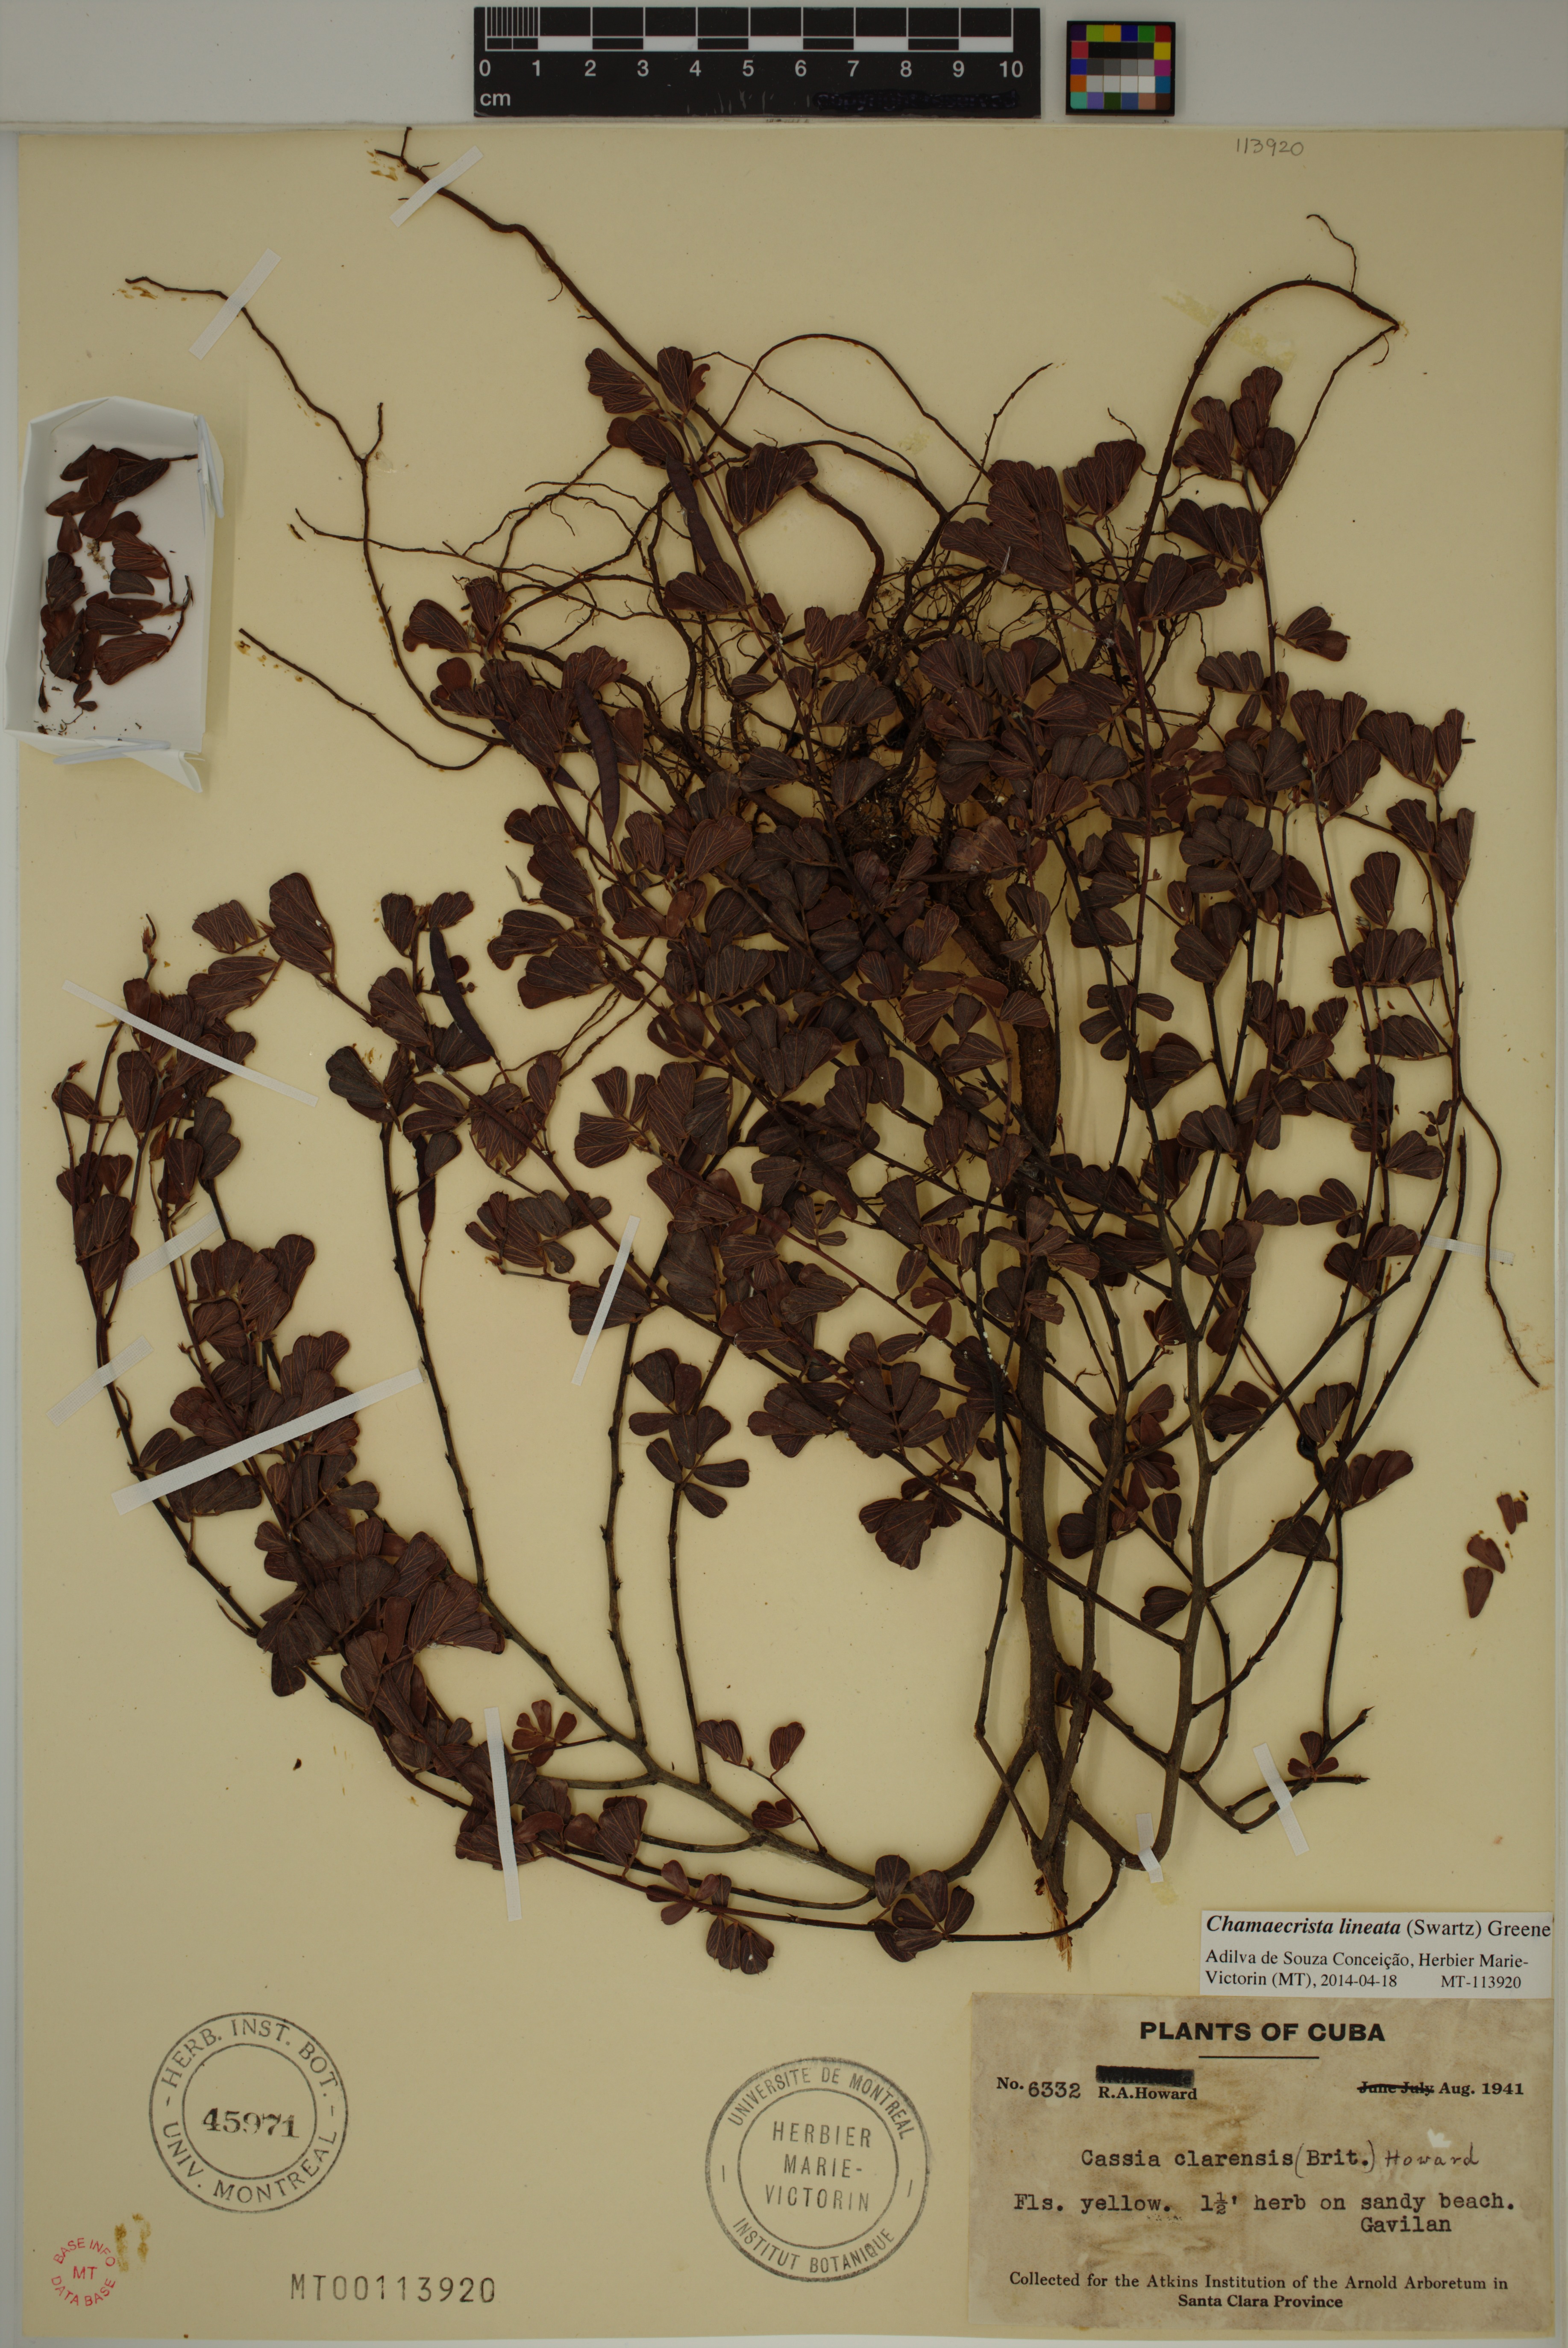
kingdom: Plantae
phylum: Tracheophyta
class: Magnoliopsida
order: Fabales
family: Fabaceae
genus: Chamaecrista
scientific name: Chamaecrista lineata
